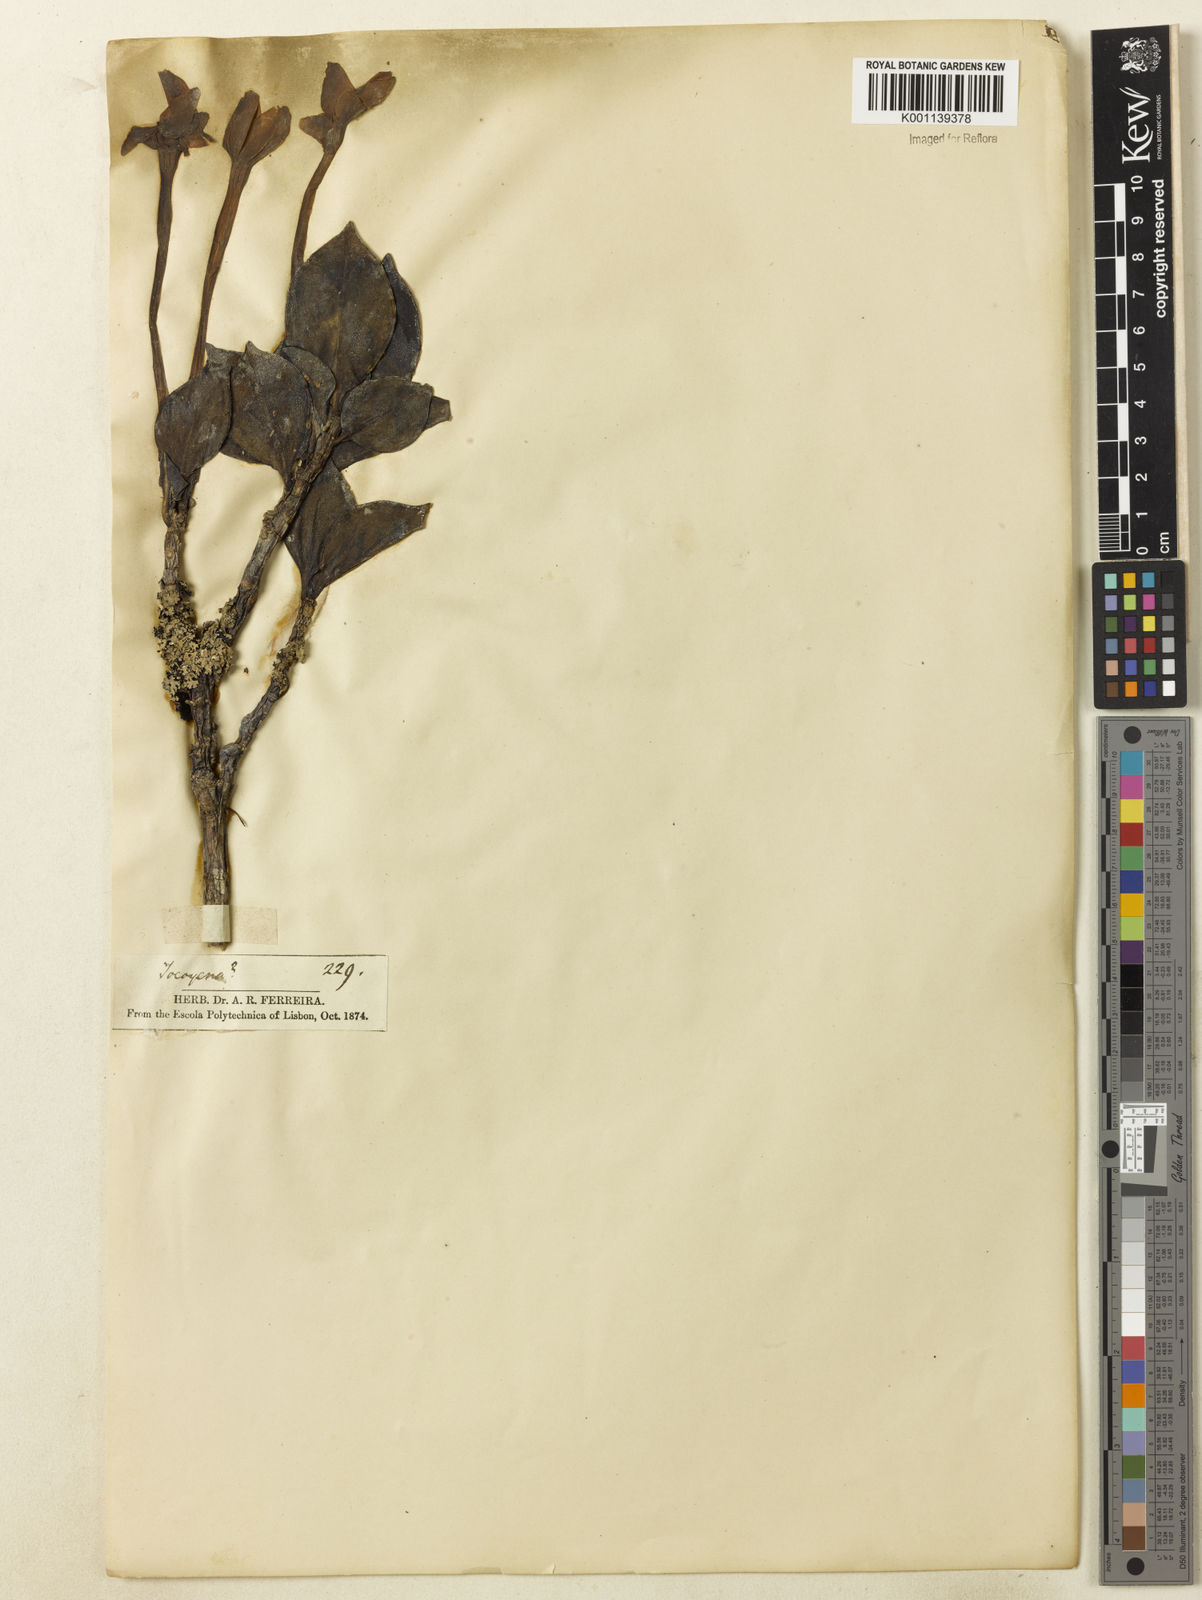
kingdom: Plantae
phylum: Tracheophyta
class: Magnoliopsida
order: Gentianales
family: Rubiaceae
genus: Hillia
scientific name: Hillia parasitica
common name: Morning star
